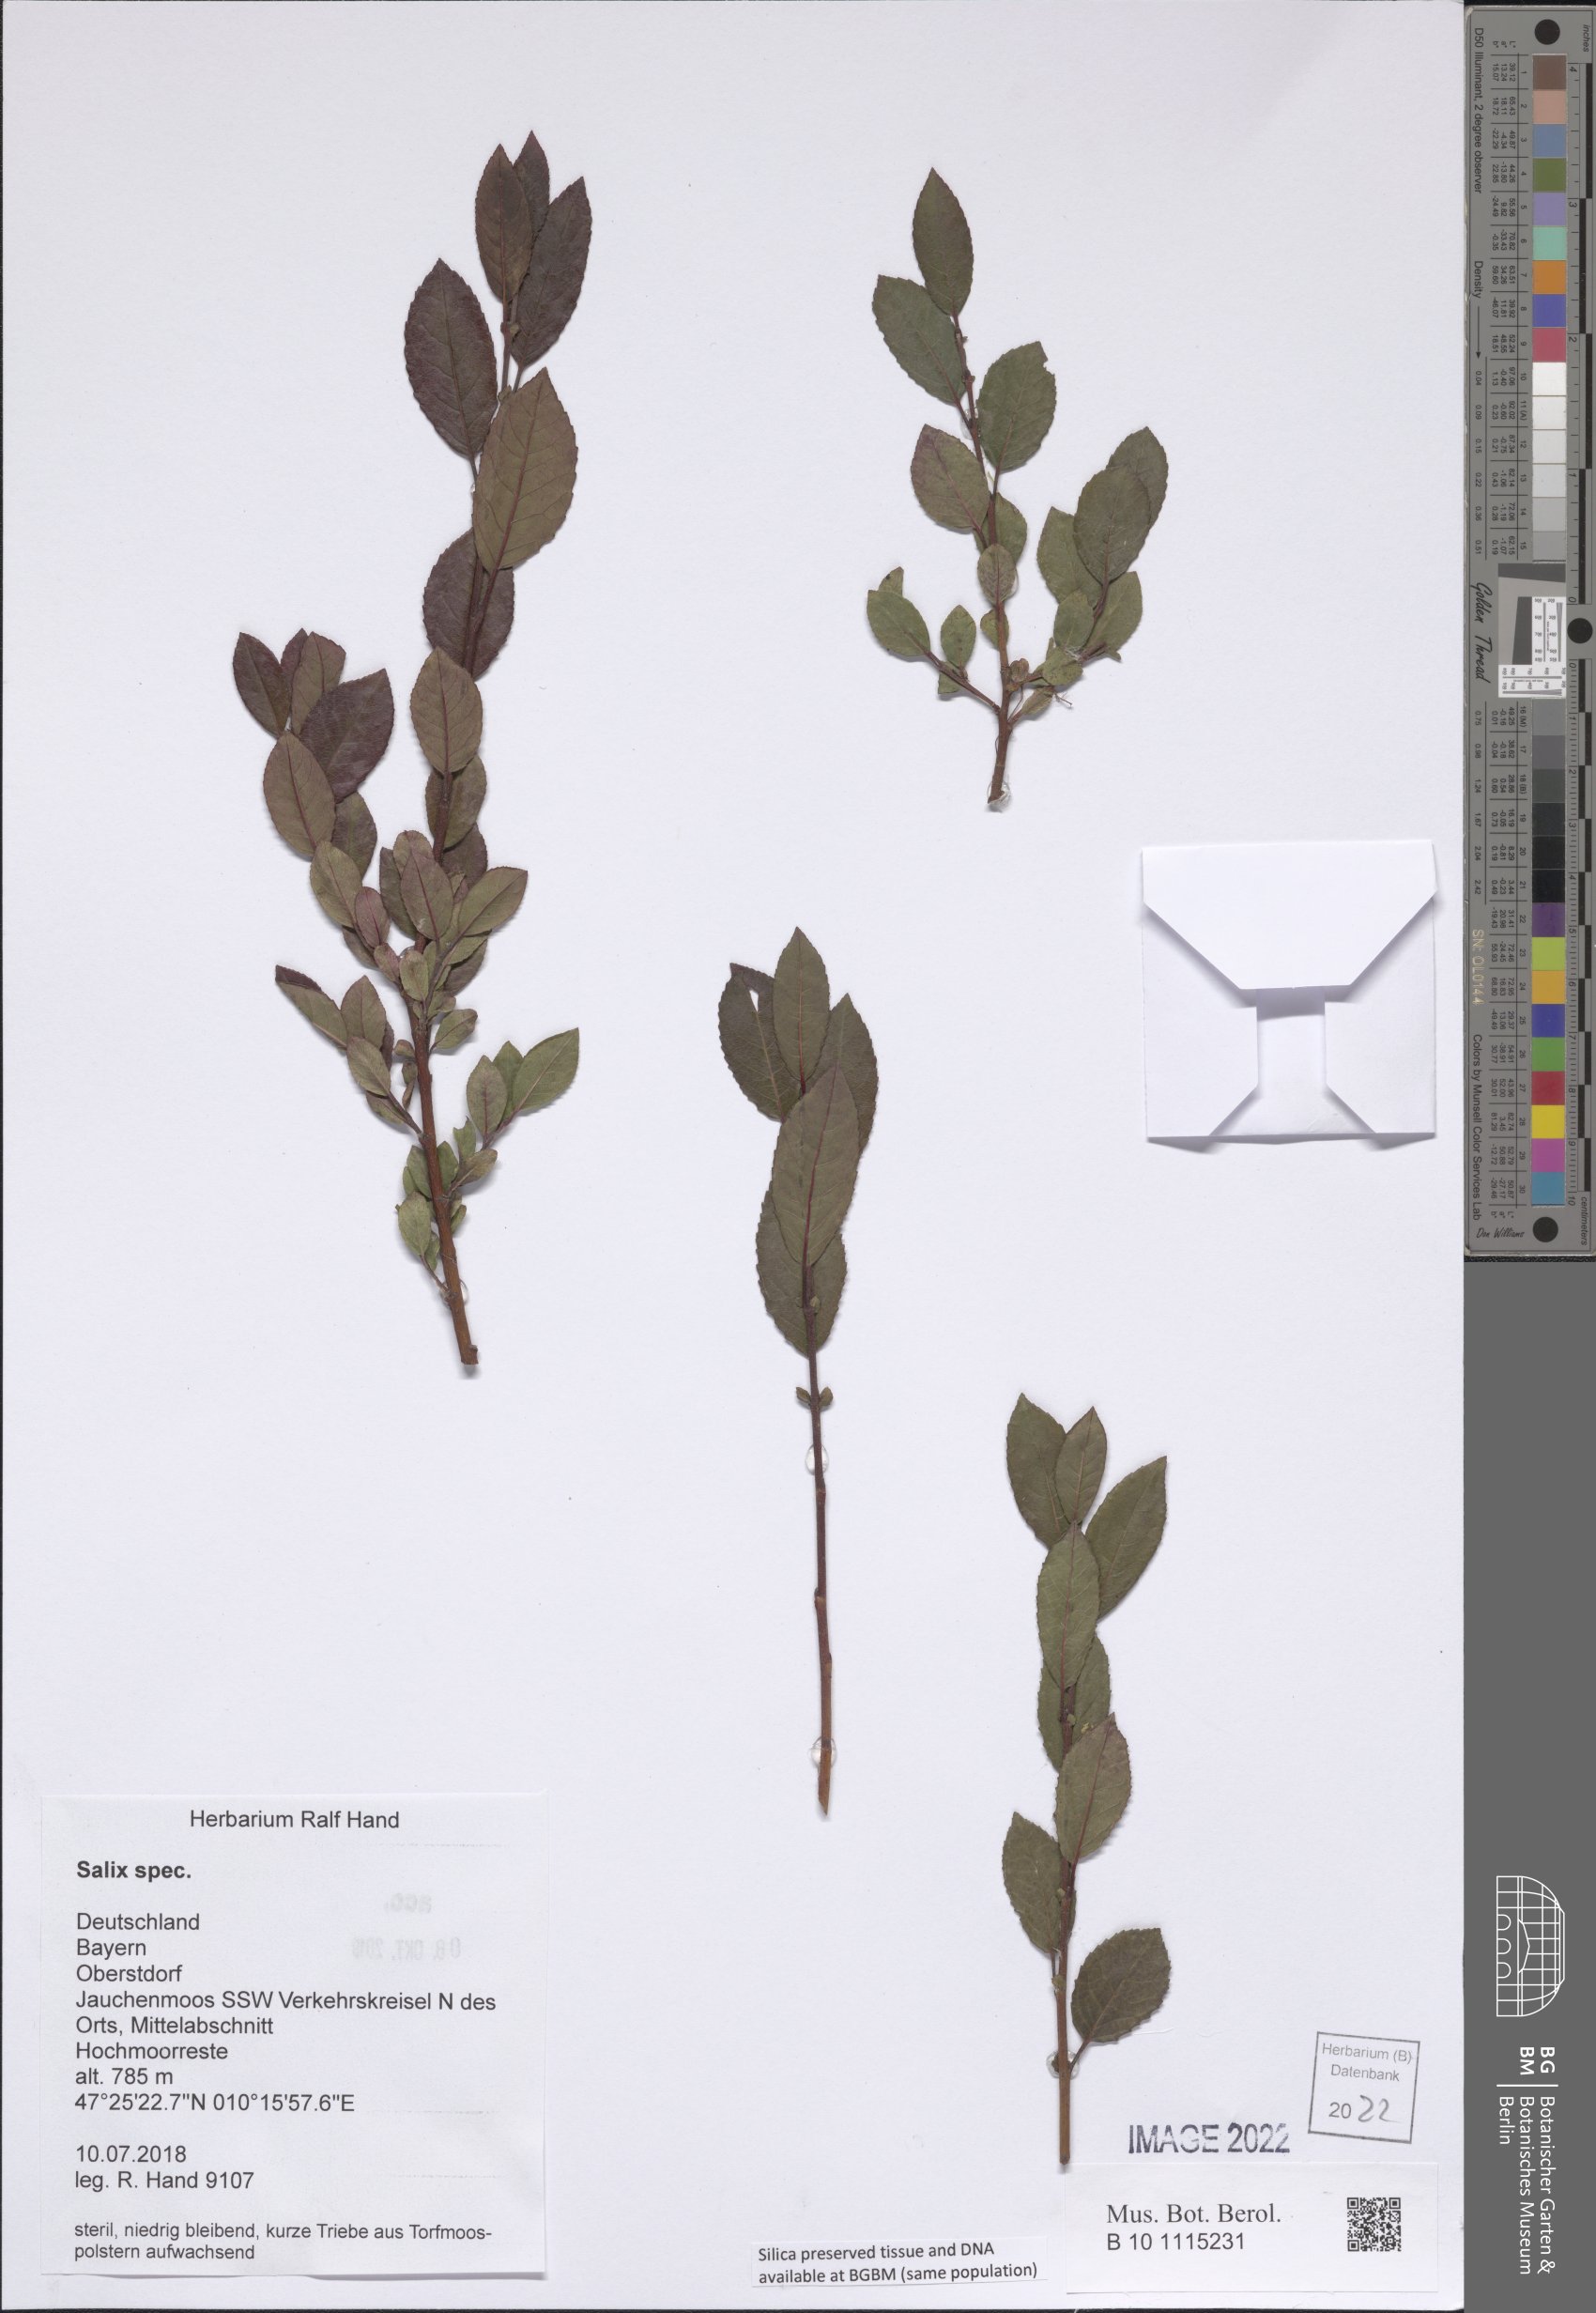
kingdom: Plantae
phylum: Tracheophyta
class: Magnoliopsida
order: Malpighiales
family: Salicaceae
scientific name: Salicaceae
